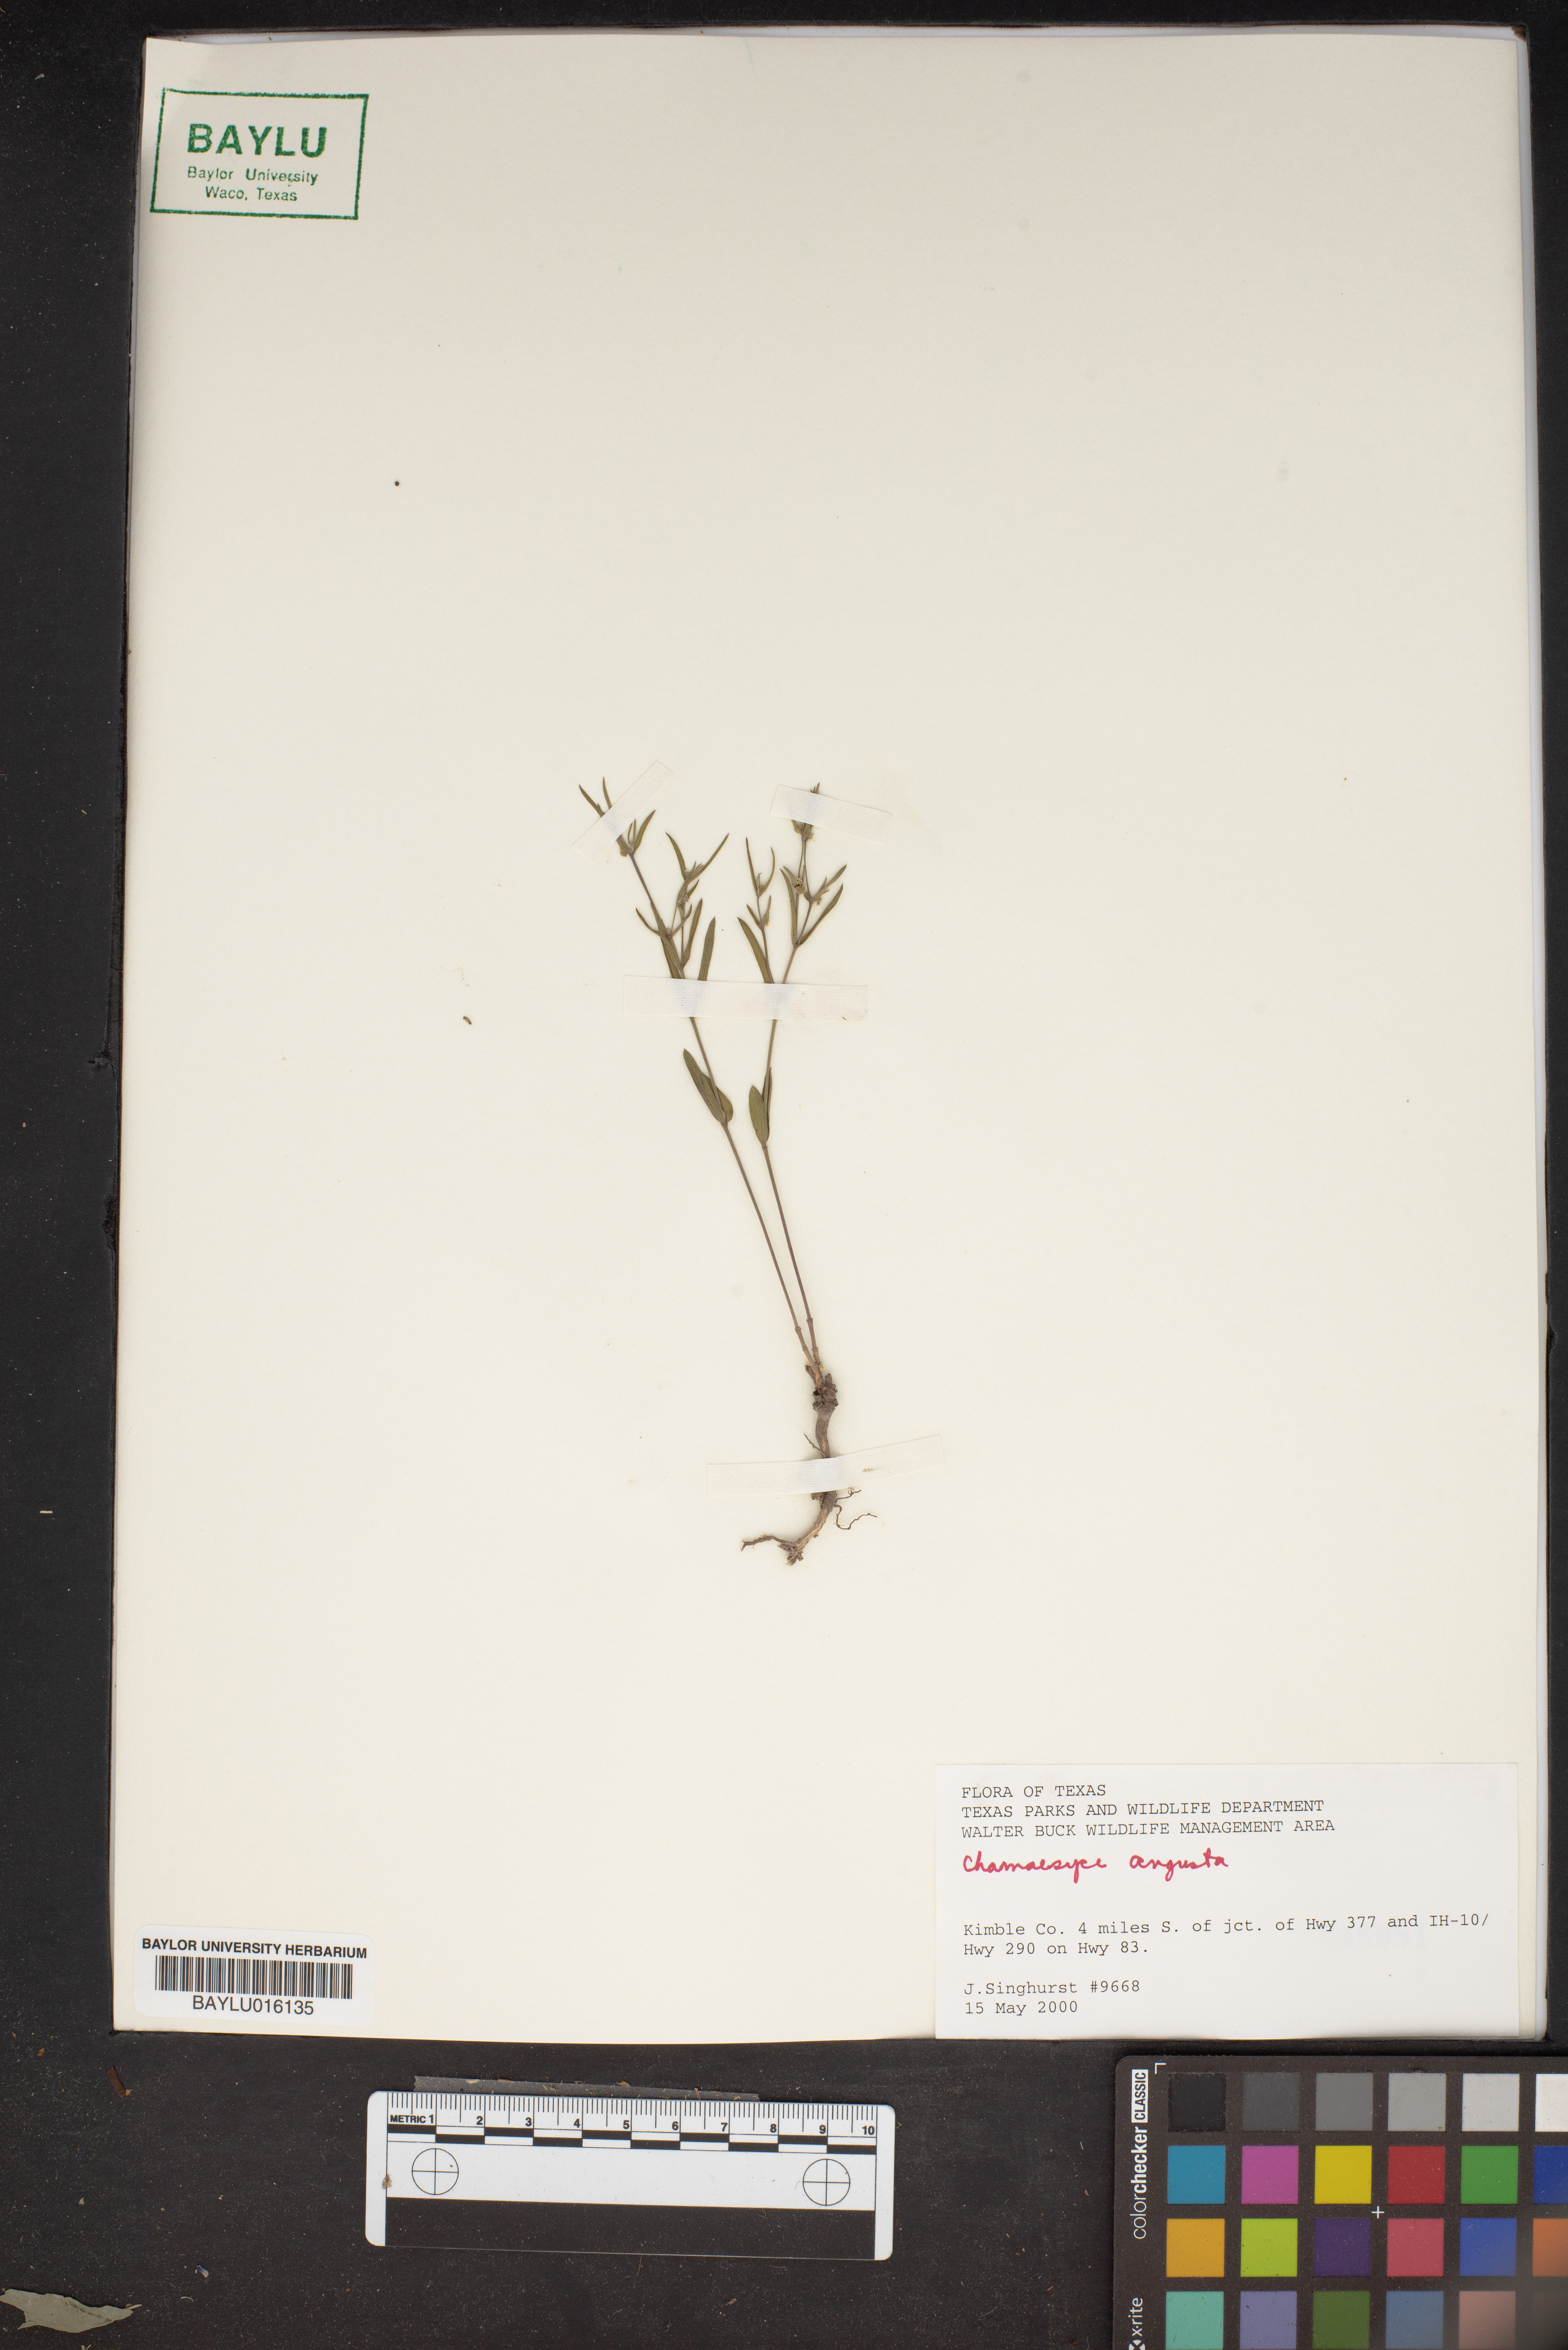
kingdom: Plantae
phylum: Tracheophyta
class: Magnoliopsida
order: Malpighiales
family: Euphorbiaceae
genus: Euphorbia
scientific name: Euphorbia angusta
